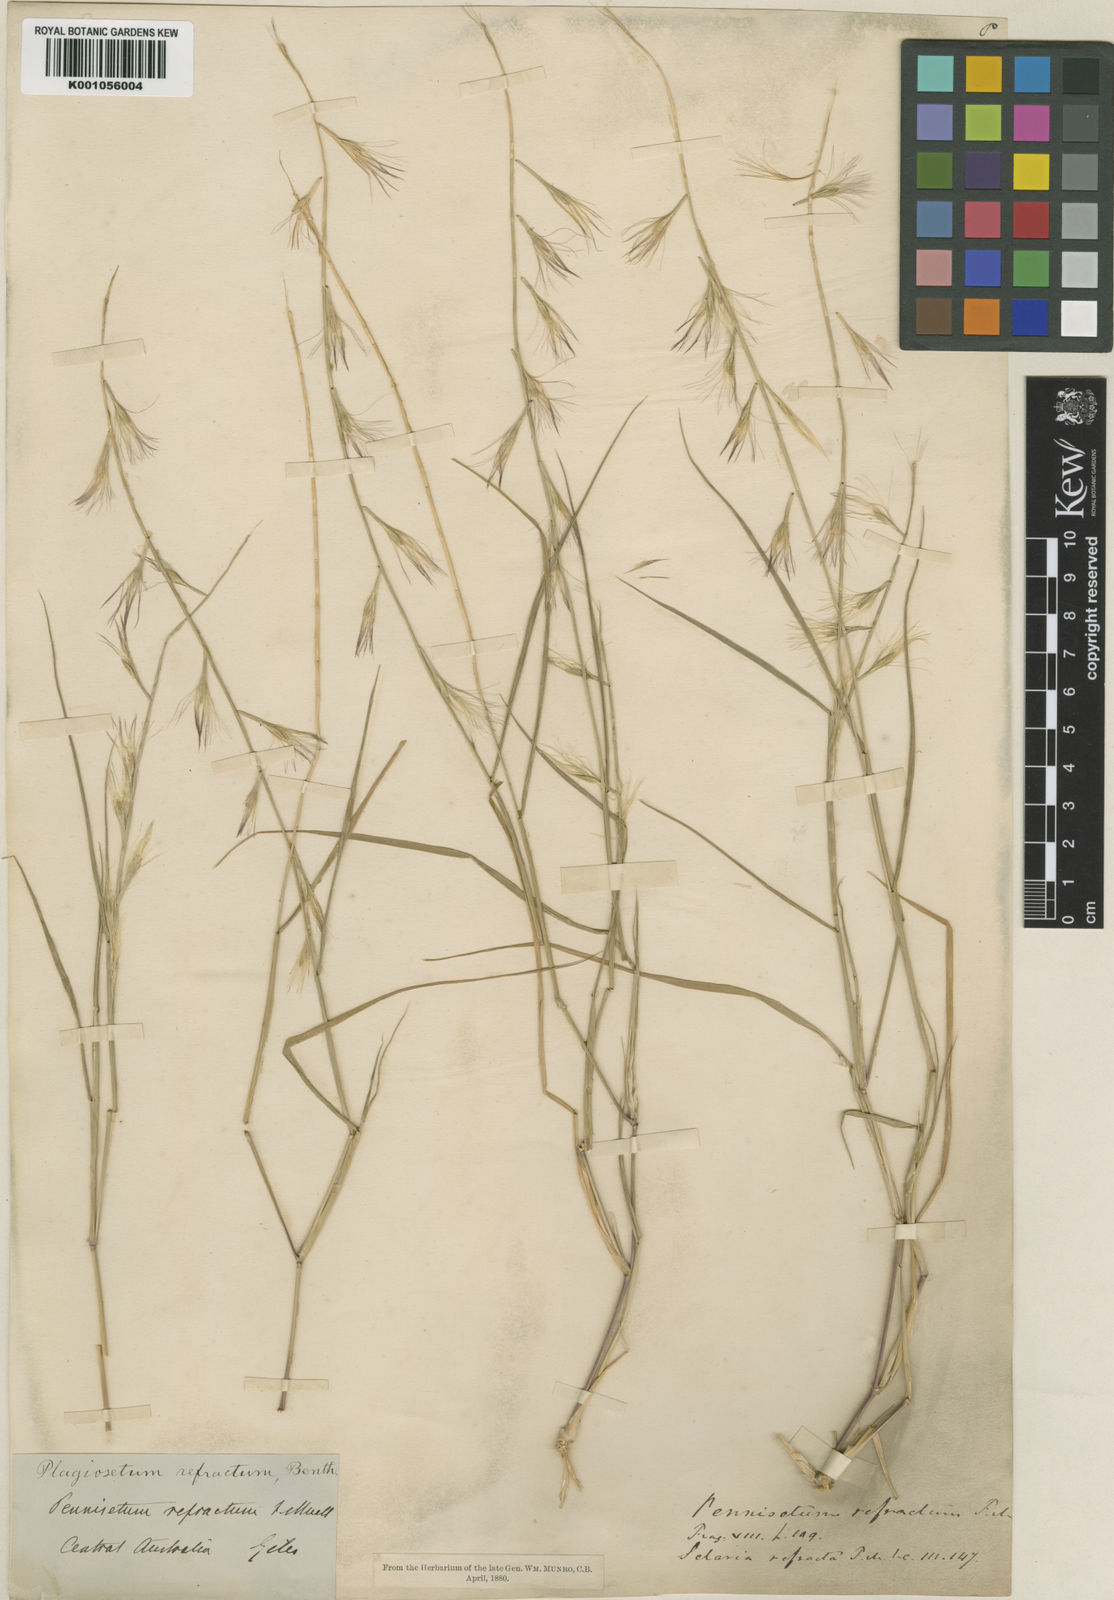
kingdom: Plantae
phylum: Tracheophyta
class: Liliopsida
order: Poales
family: Poaceae
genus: Plagiosetum
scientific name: Plagiosetum refractum
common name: Bristle-brush grass
